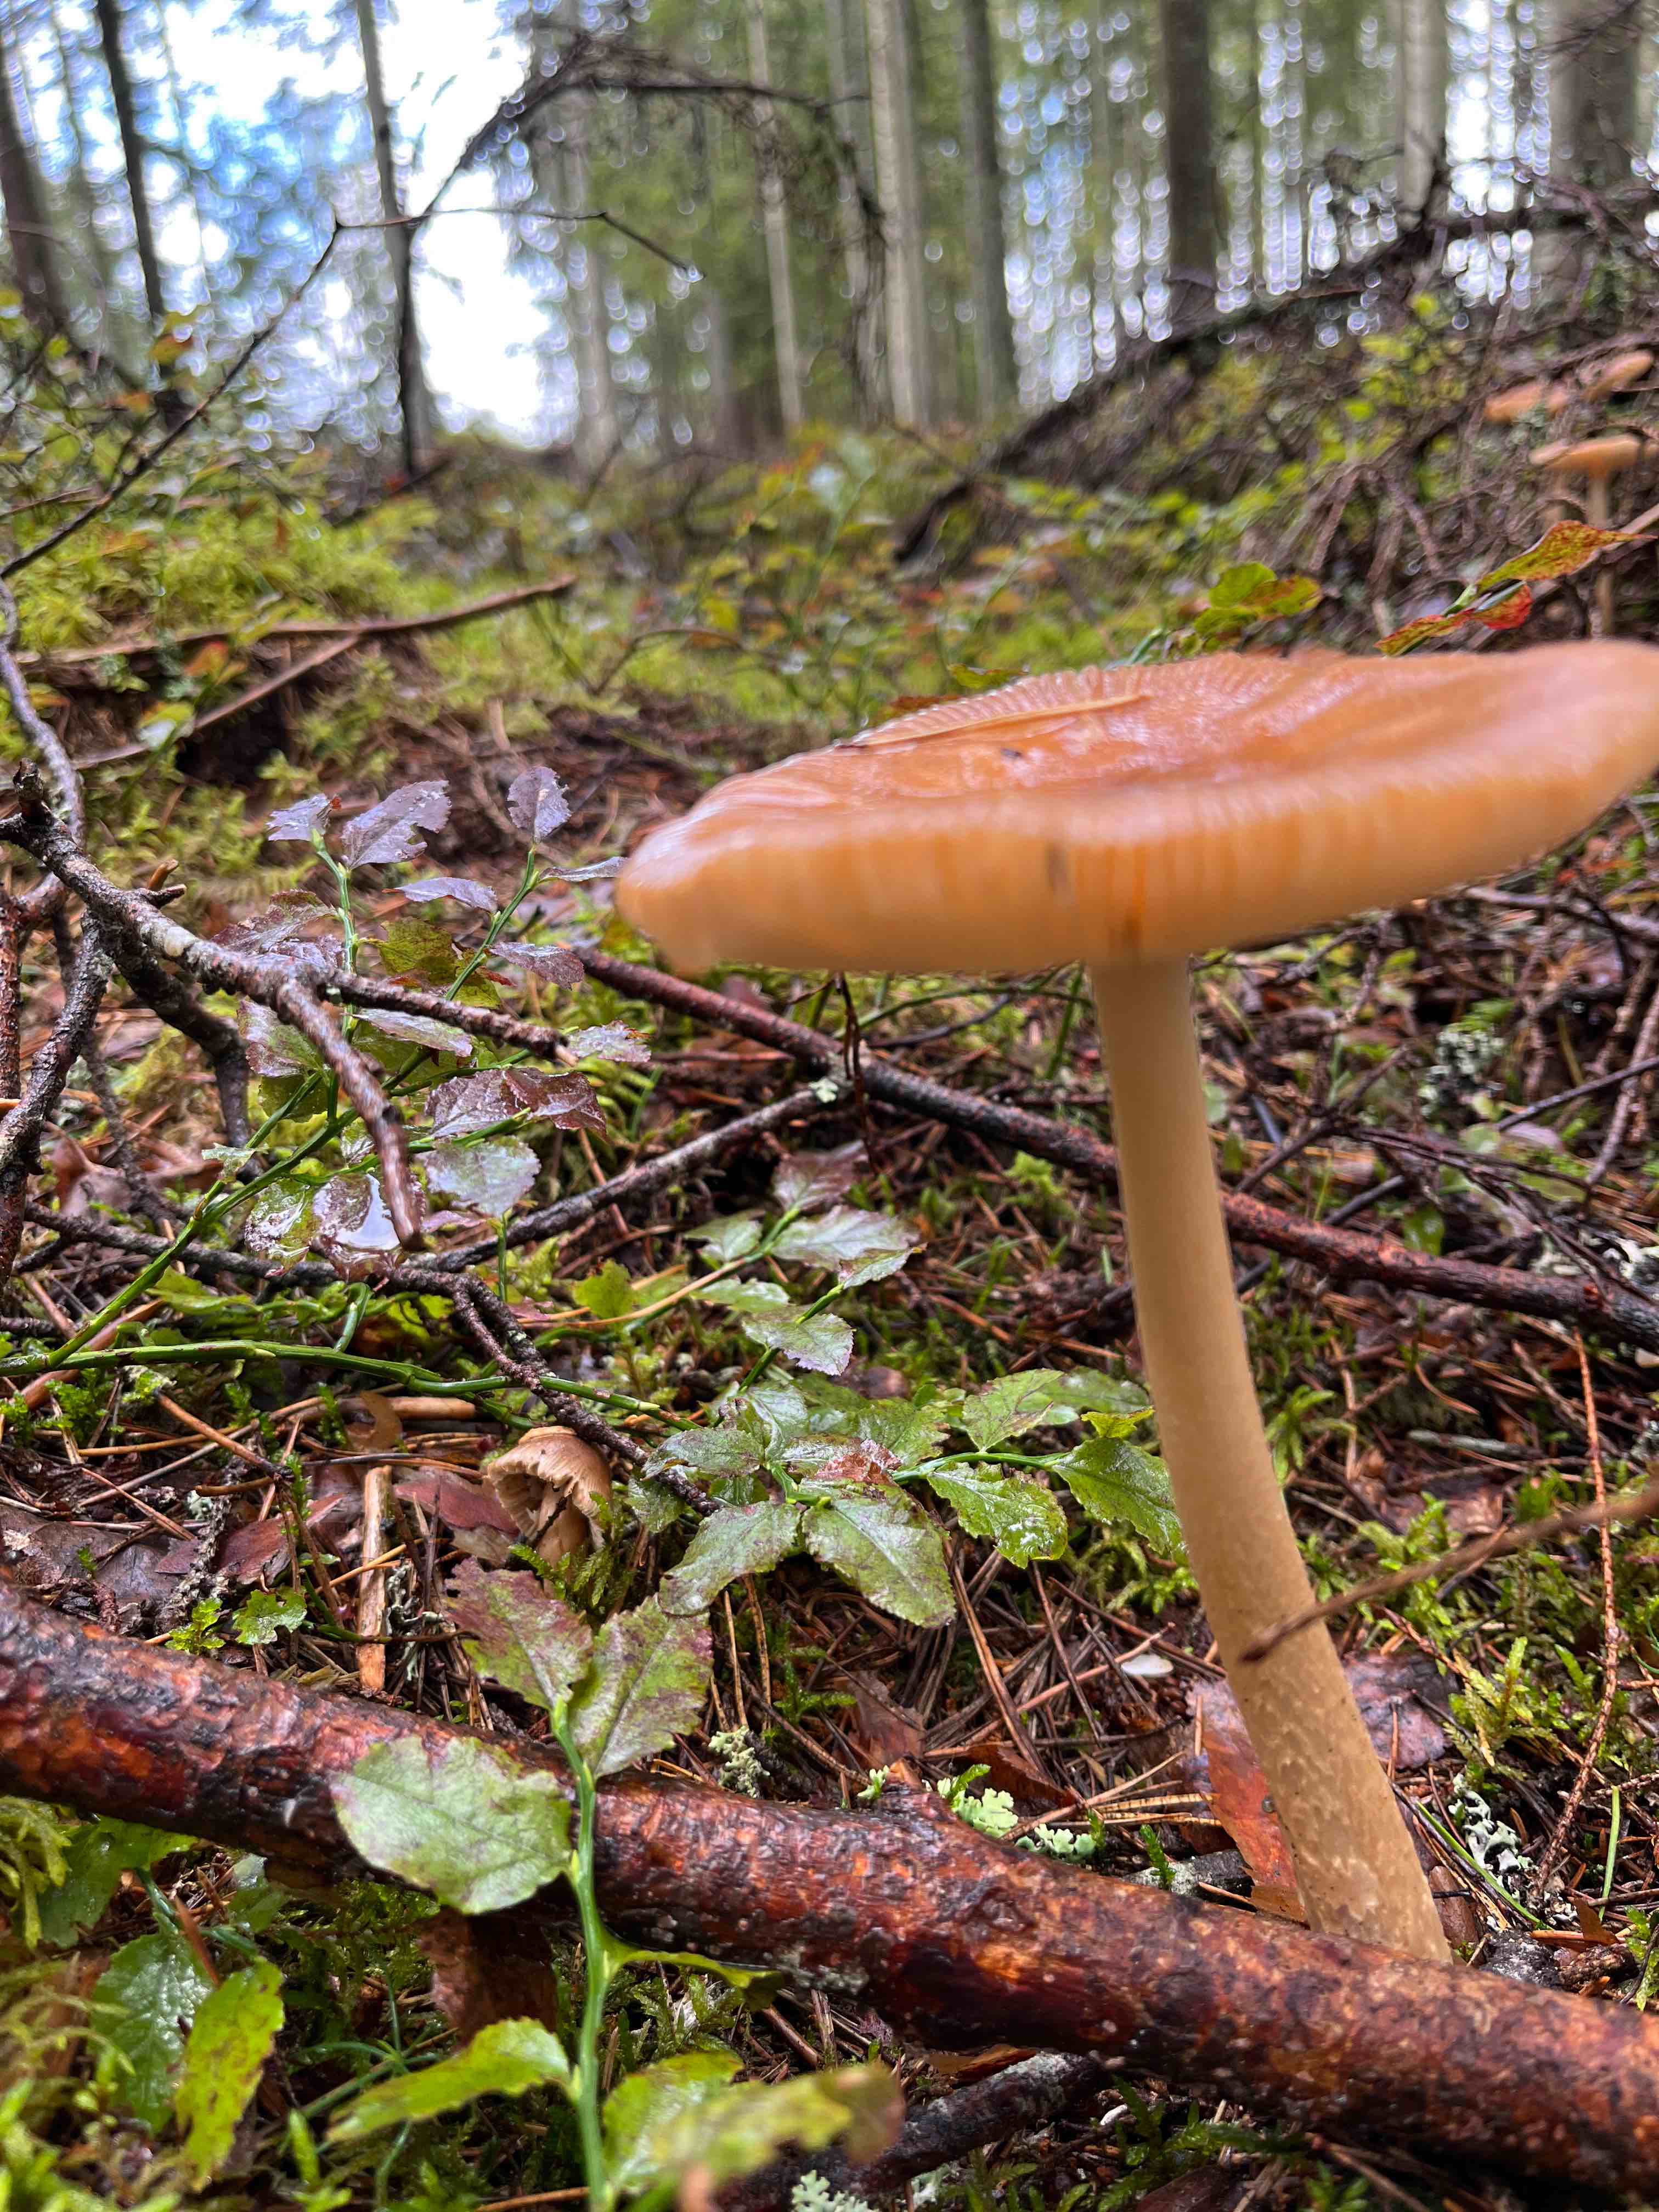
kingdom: Fungi
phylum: Basidiomycota
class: Agaricomycetes
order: Agaricales
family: Amanitaceae
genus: Amanita
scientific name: Amanita fulva
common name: brun kam-fluesvamp
